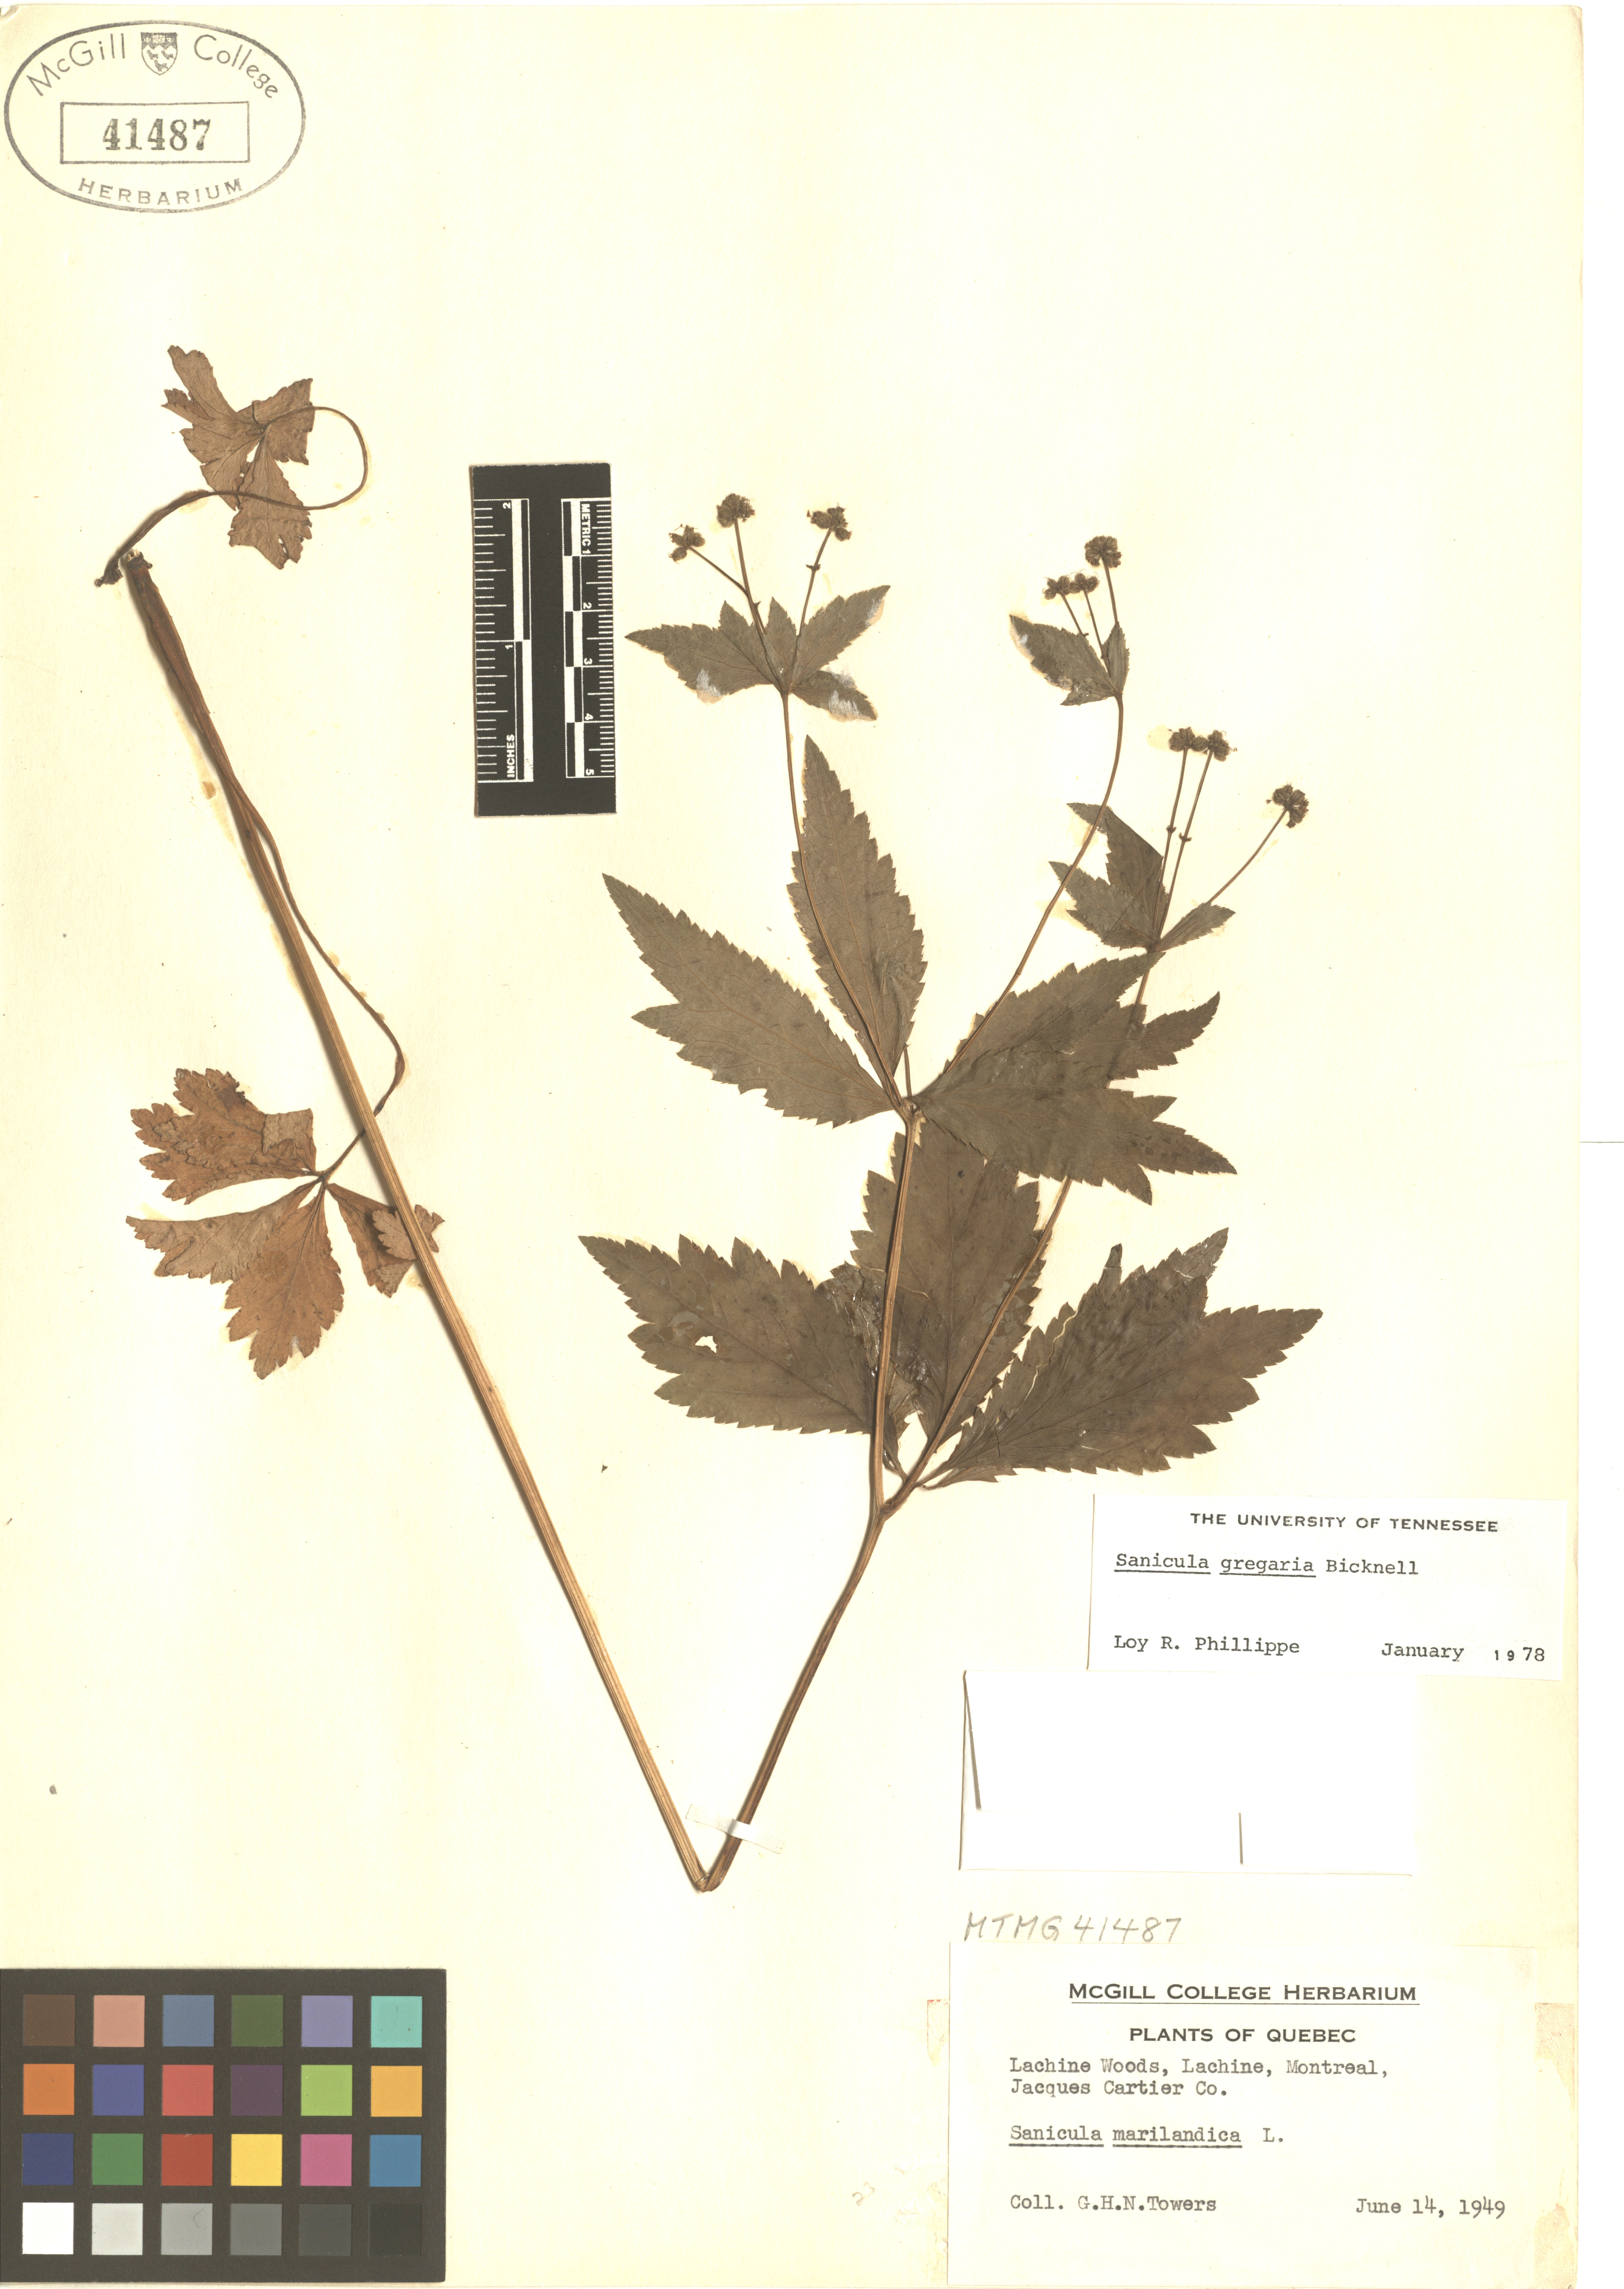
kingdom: Plantae
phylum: Tracheophyta
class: Magnoliopsida
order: Apiales
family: Apiaceae
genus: Sanicula
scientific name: Sanicula odorata
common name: Cluster sanicle
